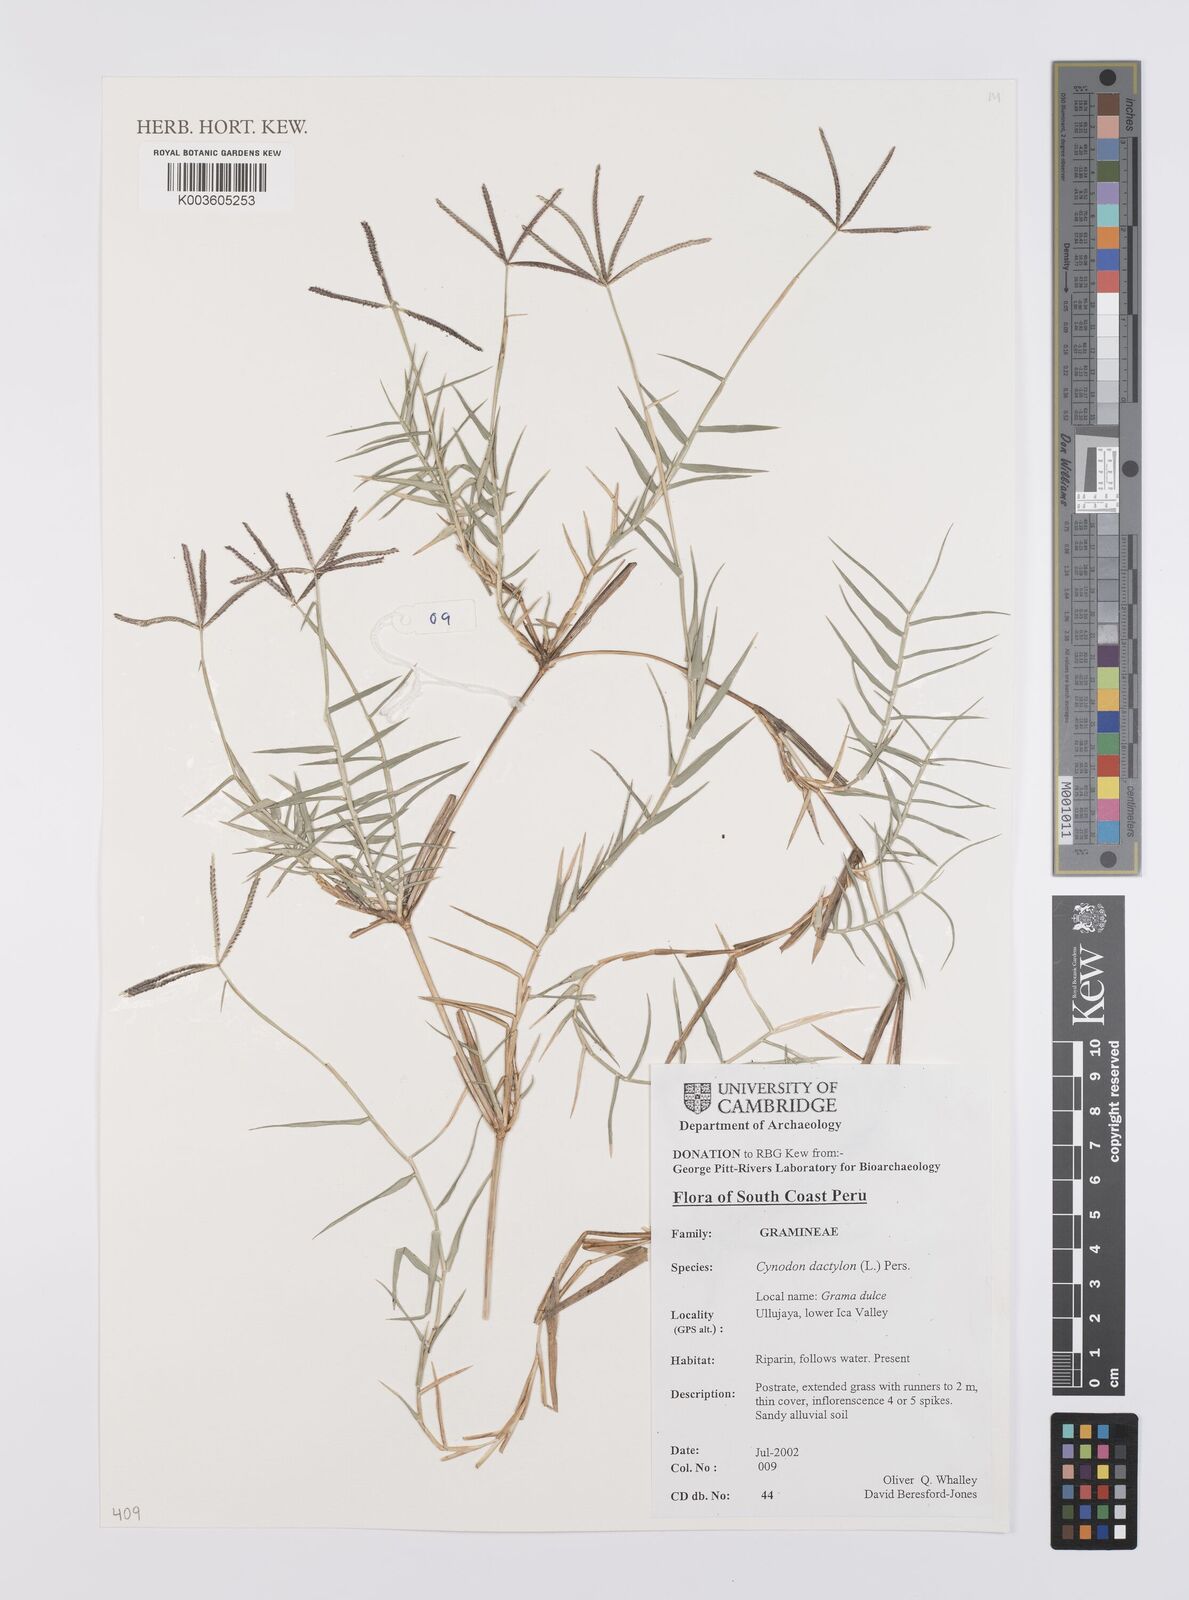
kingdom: Plantae
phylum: Tracheophyta
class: Liliopsida
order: Poales
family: Poaceae
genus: Cynodon
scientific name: Cynodon dactylon
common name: Bermuda grass
